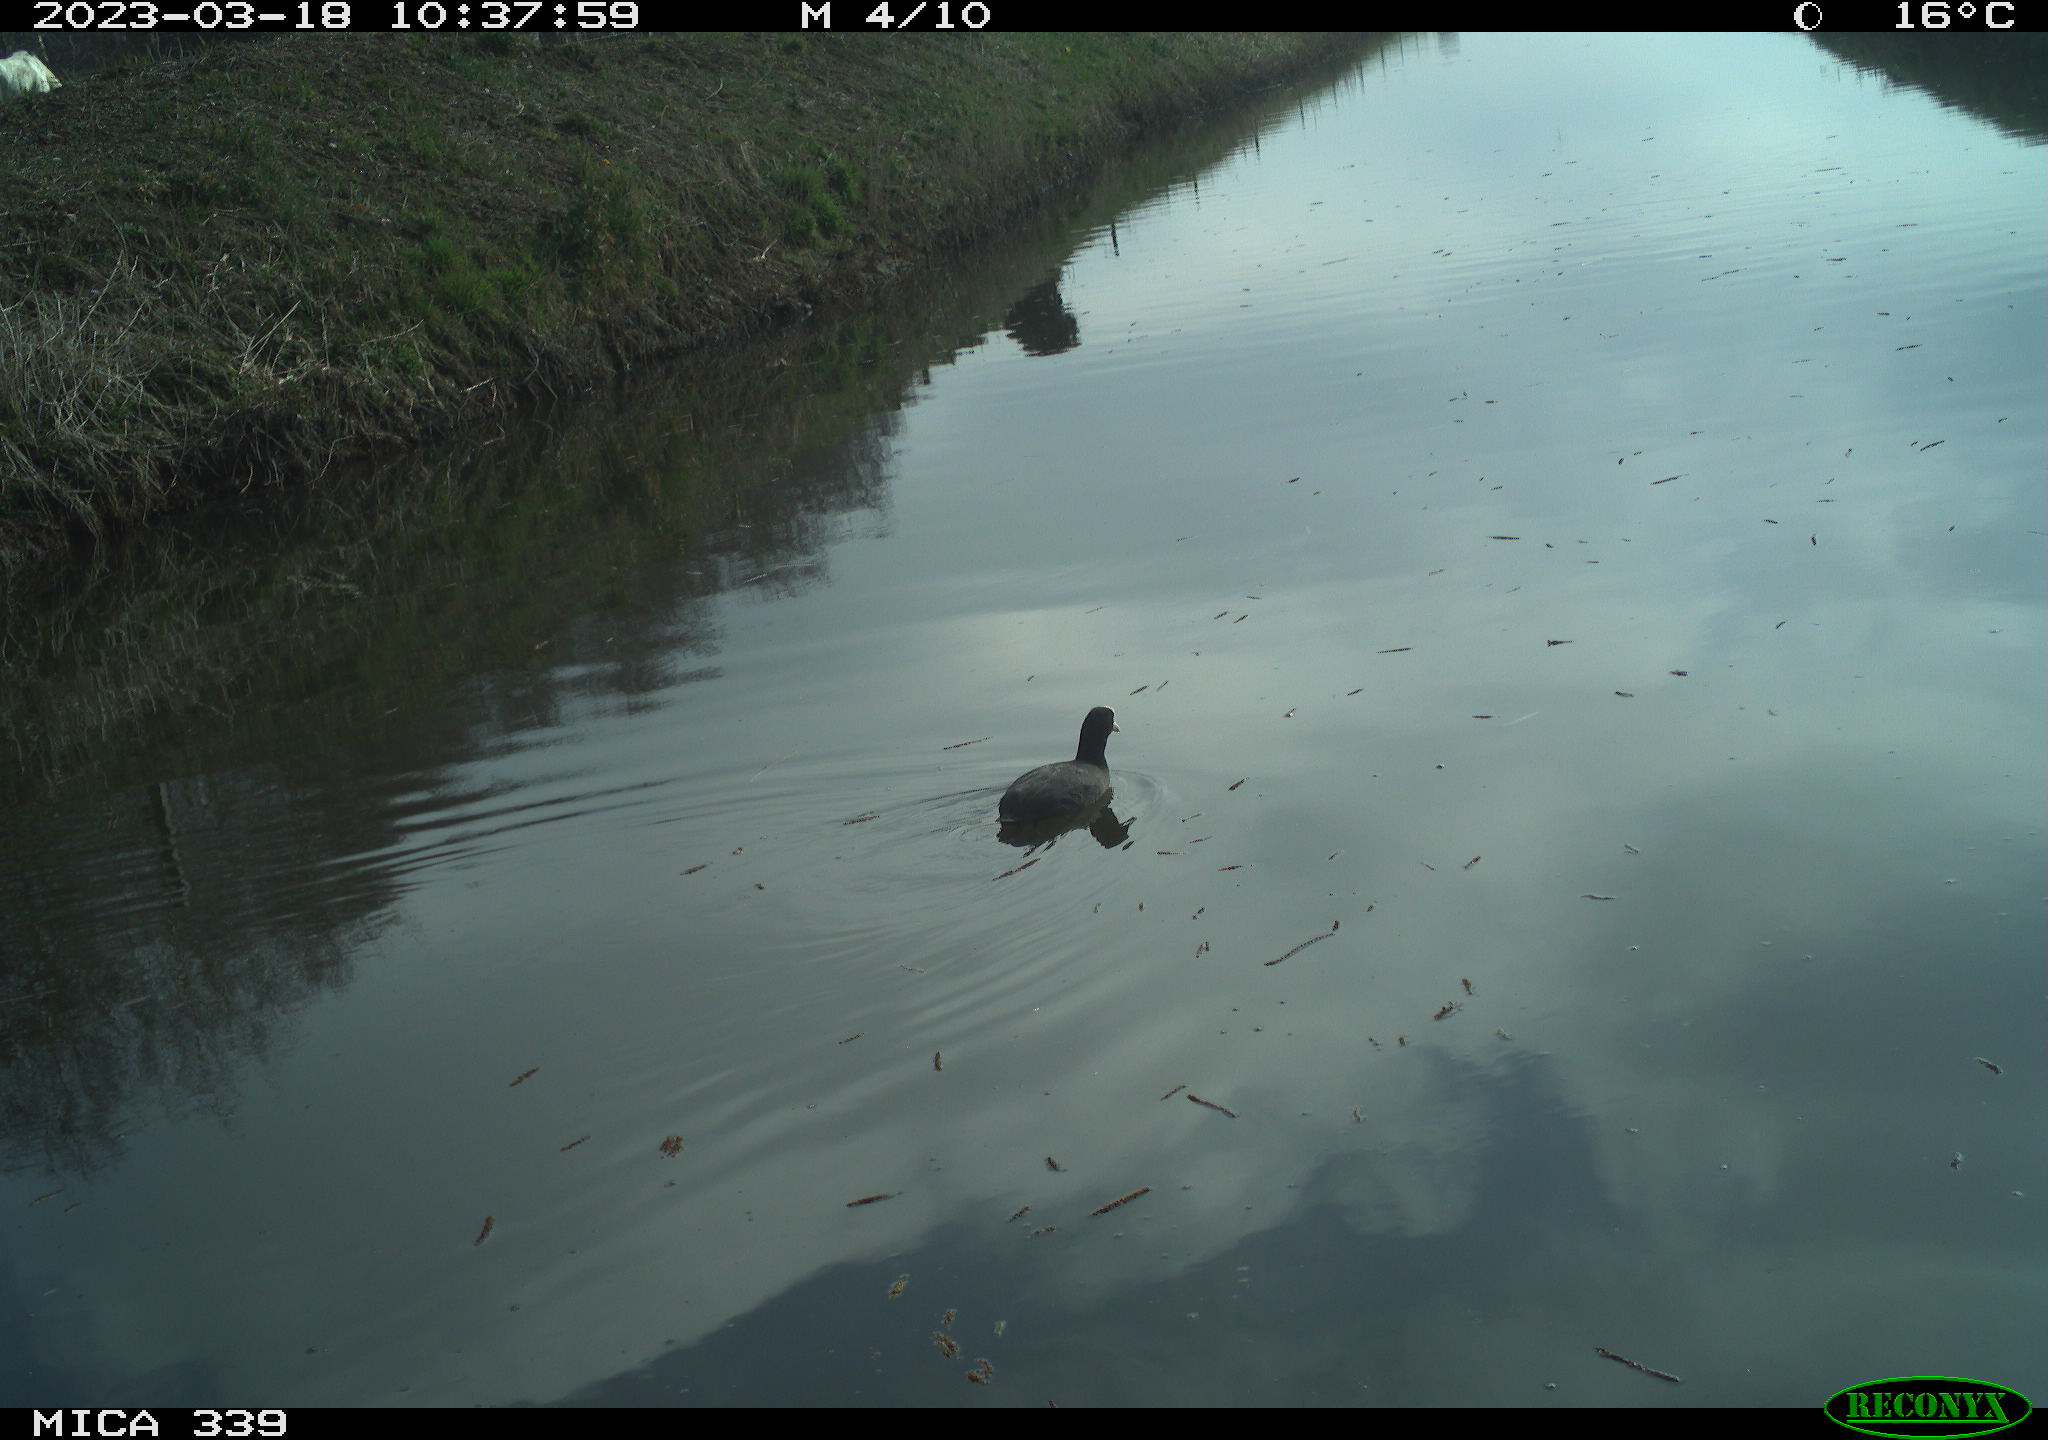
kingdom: Animalia
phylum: Chordata
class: Aves
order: Gruiformes
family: Rallidae
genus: Fulica
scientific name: Fulica atra
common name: Eurasian coot
